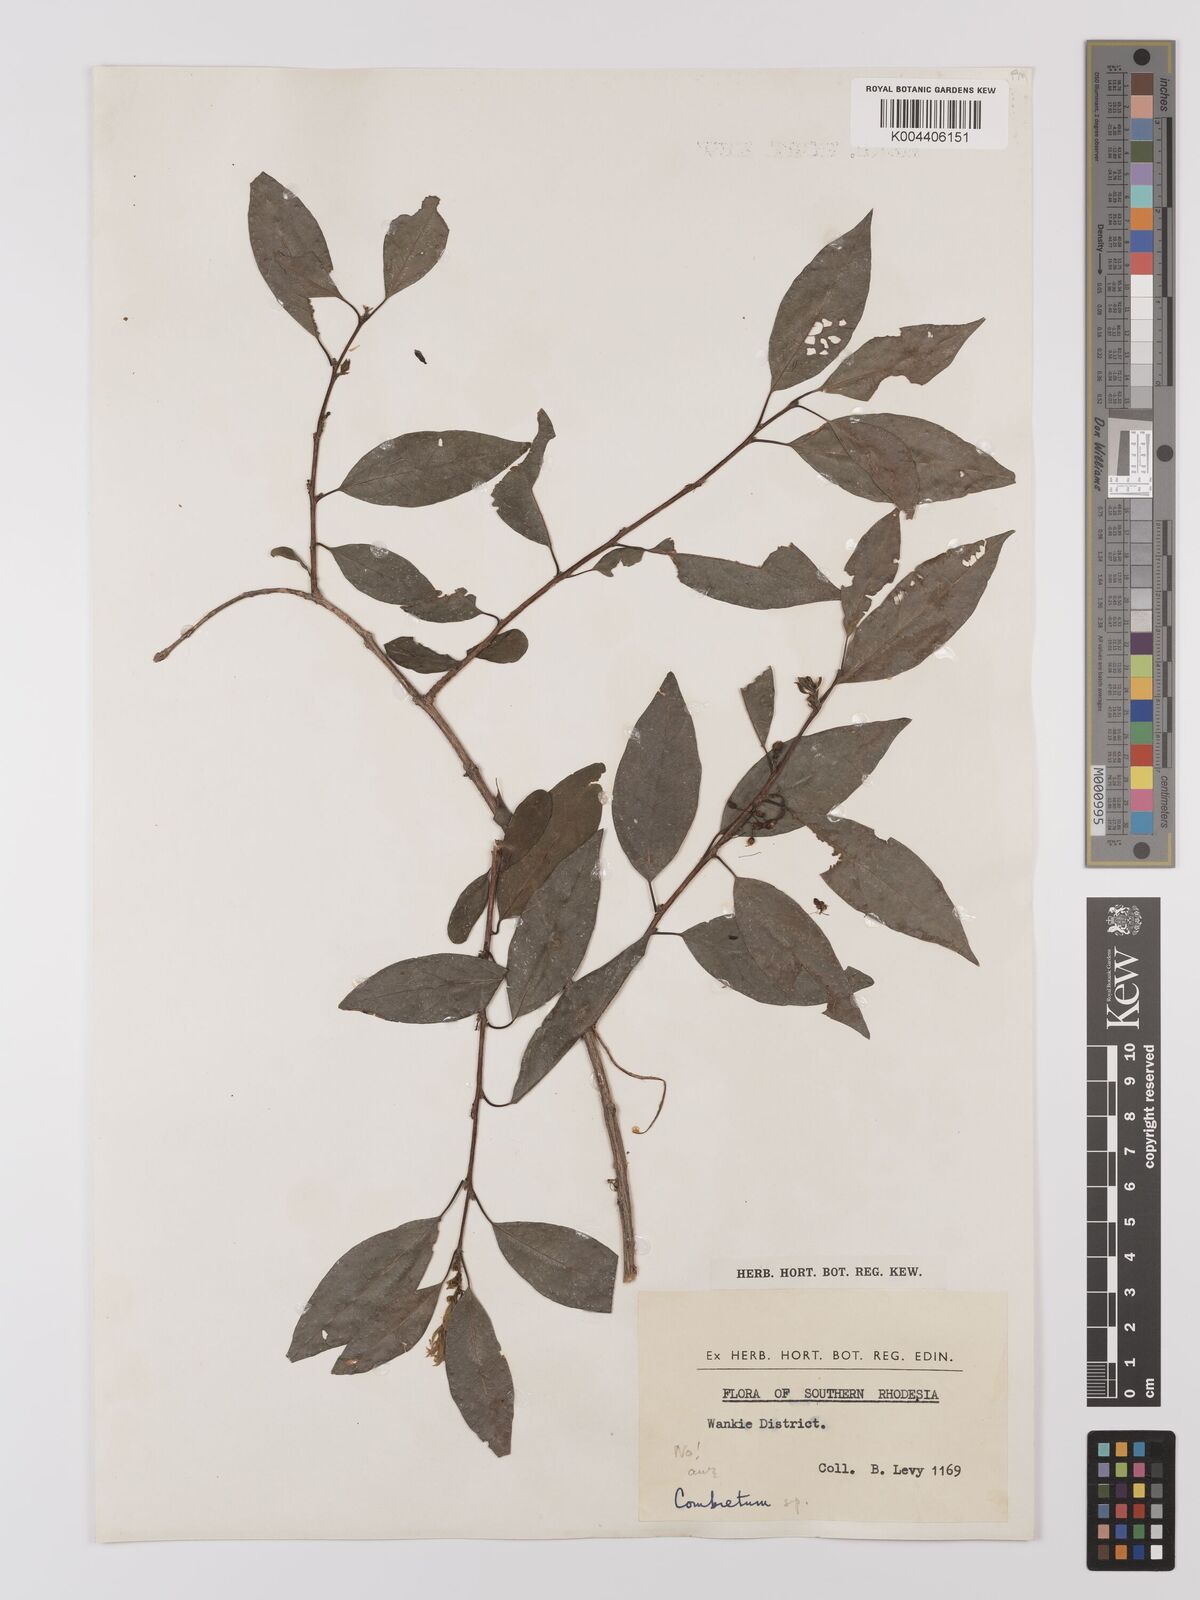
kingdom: Plantae
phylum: Tracheophyta
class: Magnoliopsida
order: Myrtales
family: Combretaceae
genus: Combretum
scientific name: Combretum
